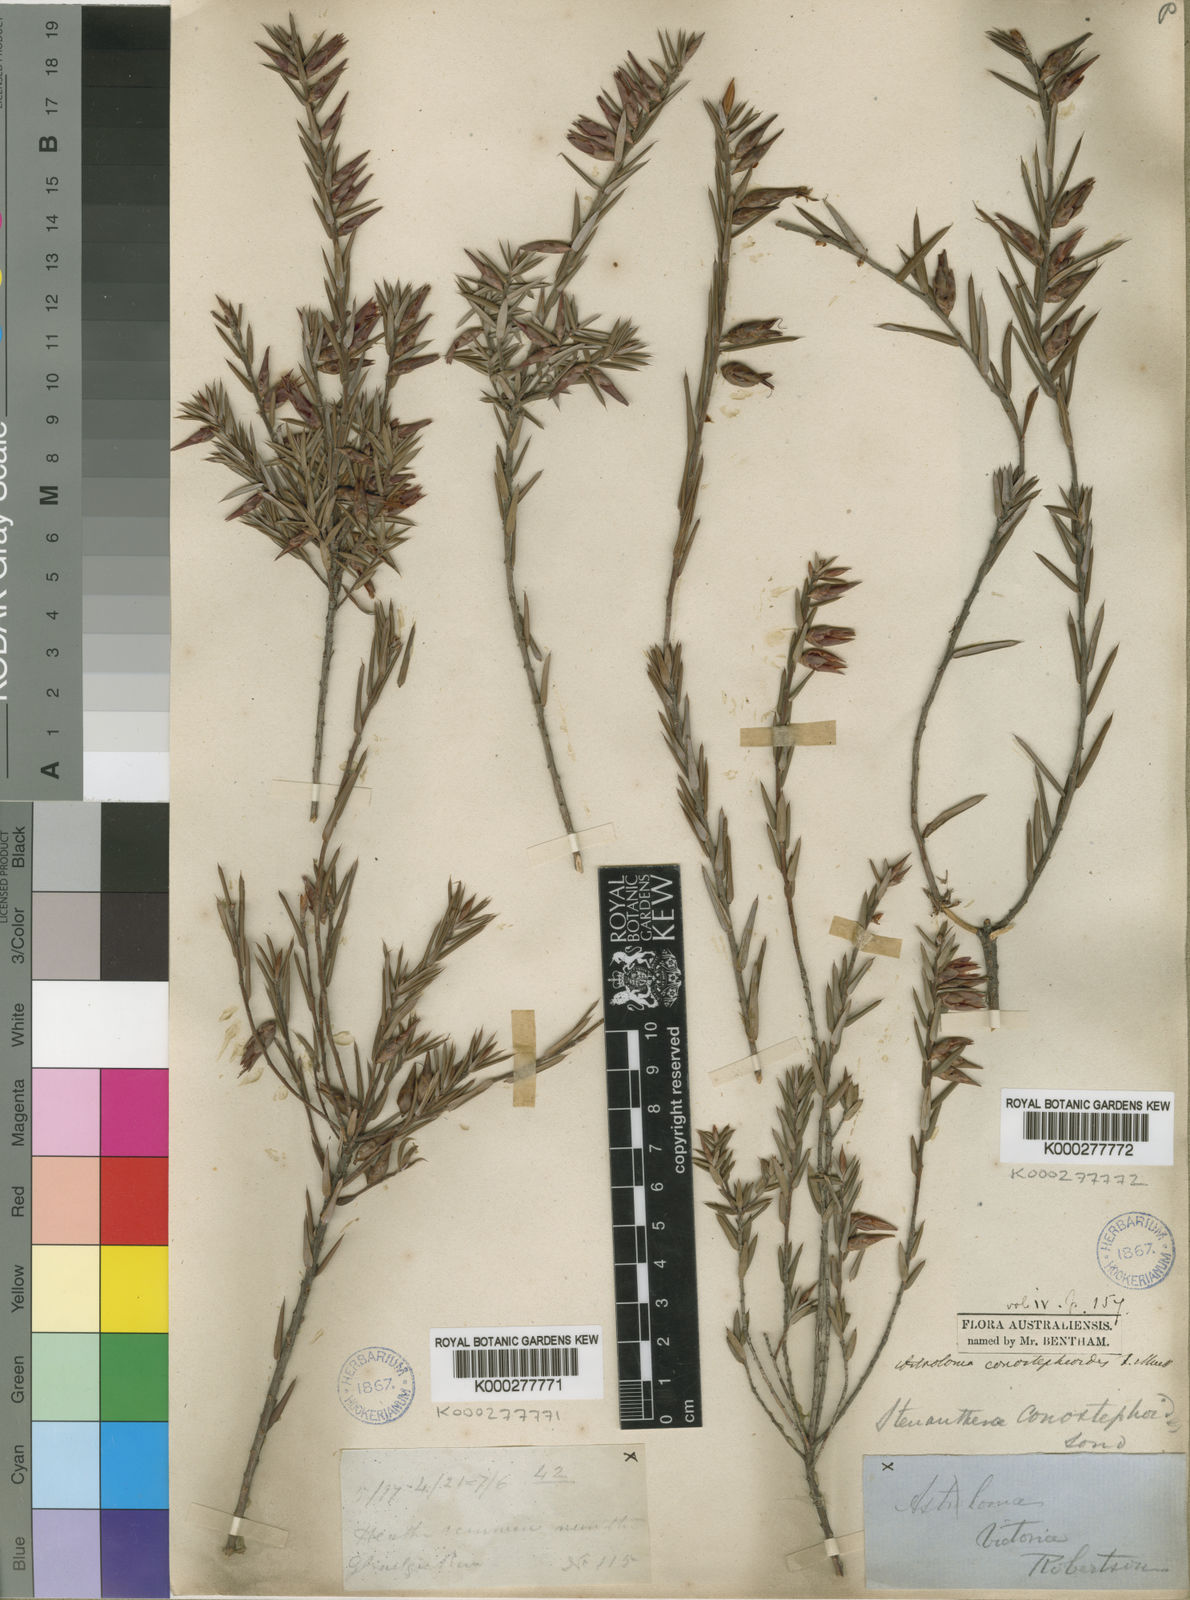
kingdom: Plantae
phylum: Tracheophyta
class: Magnoliopsida
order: Ericales
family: Ericaceae
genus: Stenanthera
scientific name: Stenanthera conostephioides
